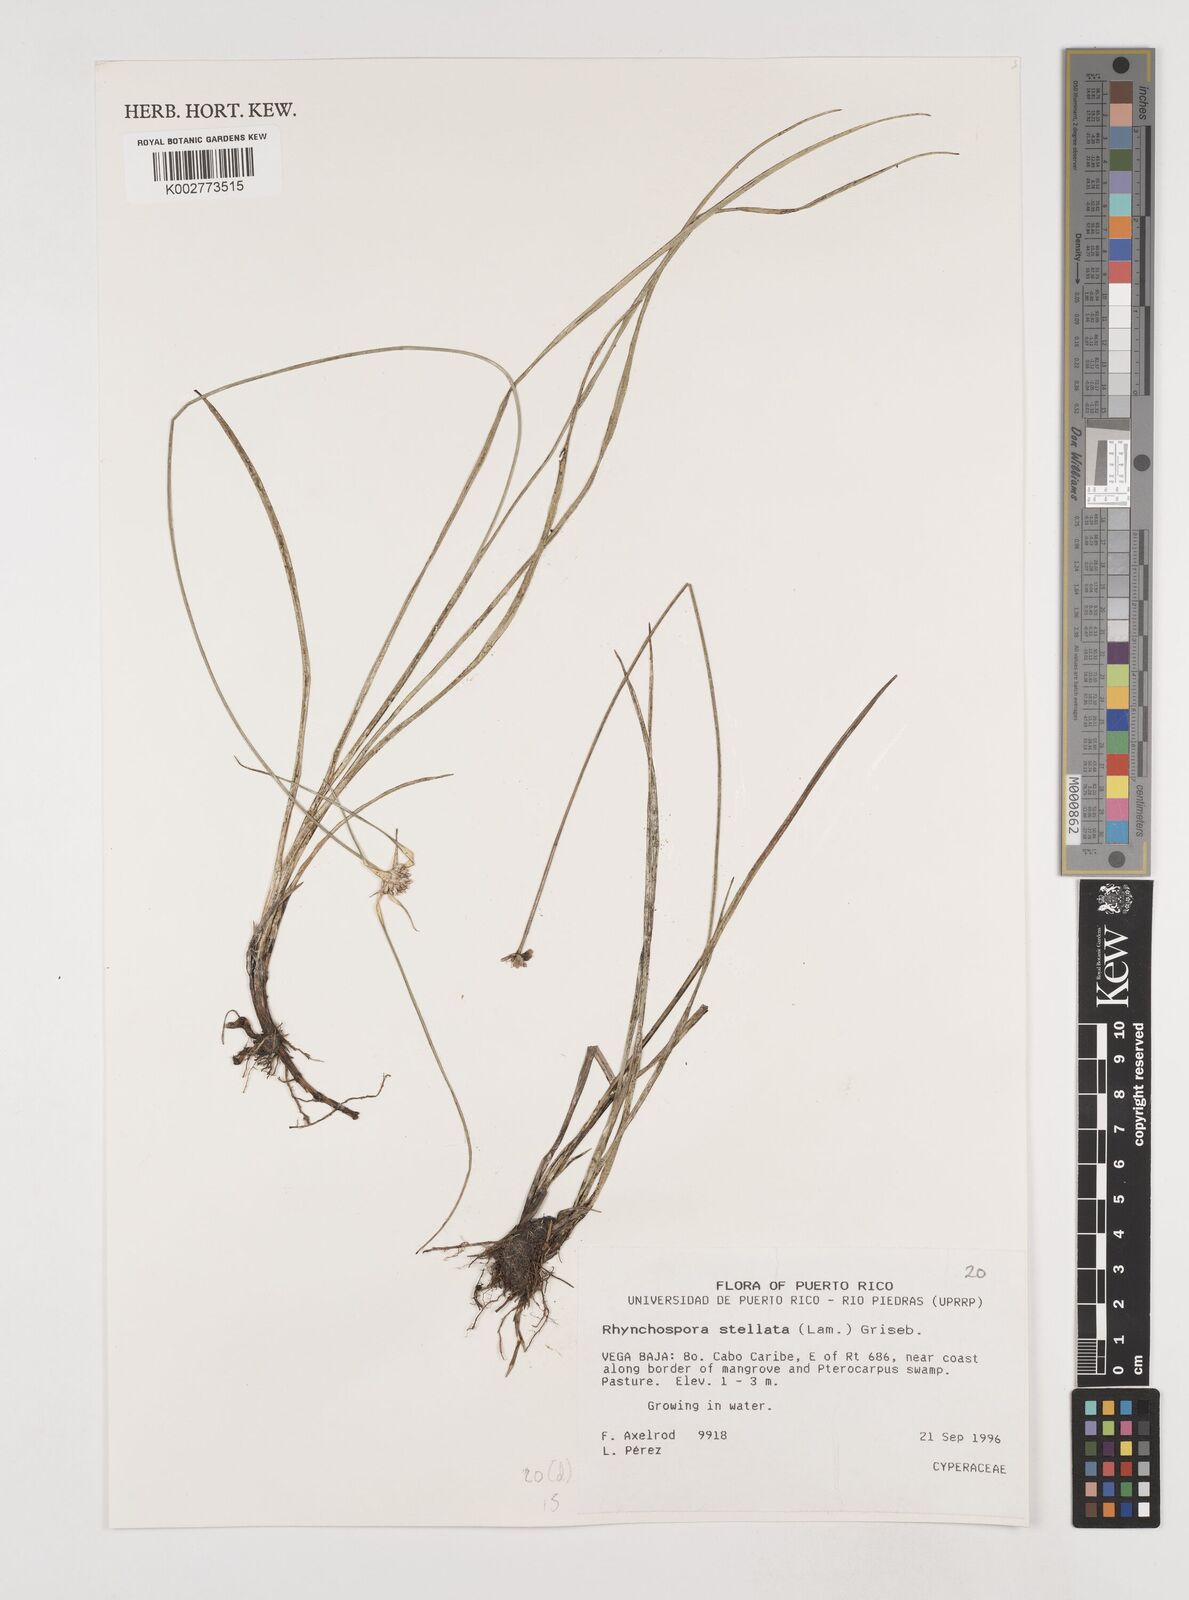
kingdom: Plantae
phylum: Tracheophyta
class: Liliopsida
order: Poales
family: Cyperaceae
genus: Rhynchospora
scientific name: Rhynchospora colorata
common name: Star sedge
